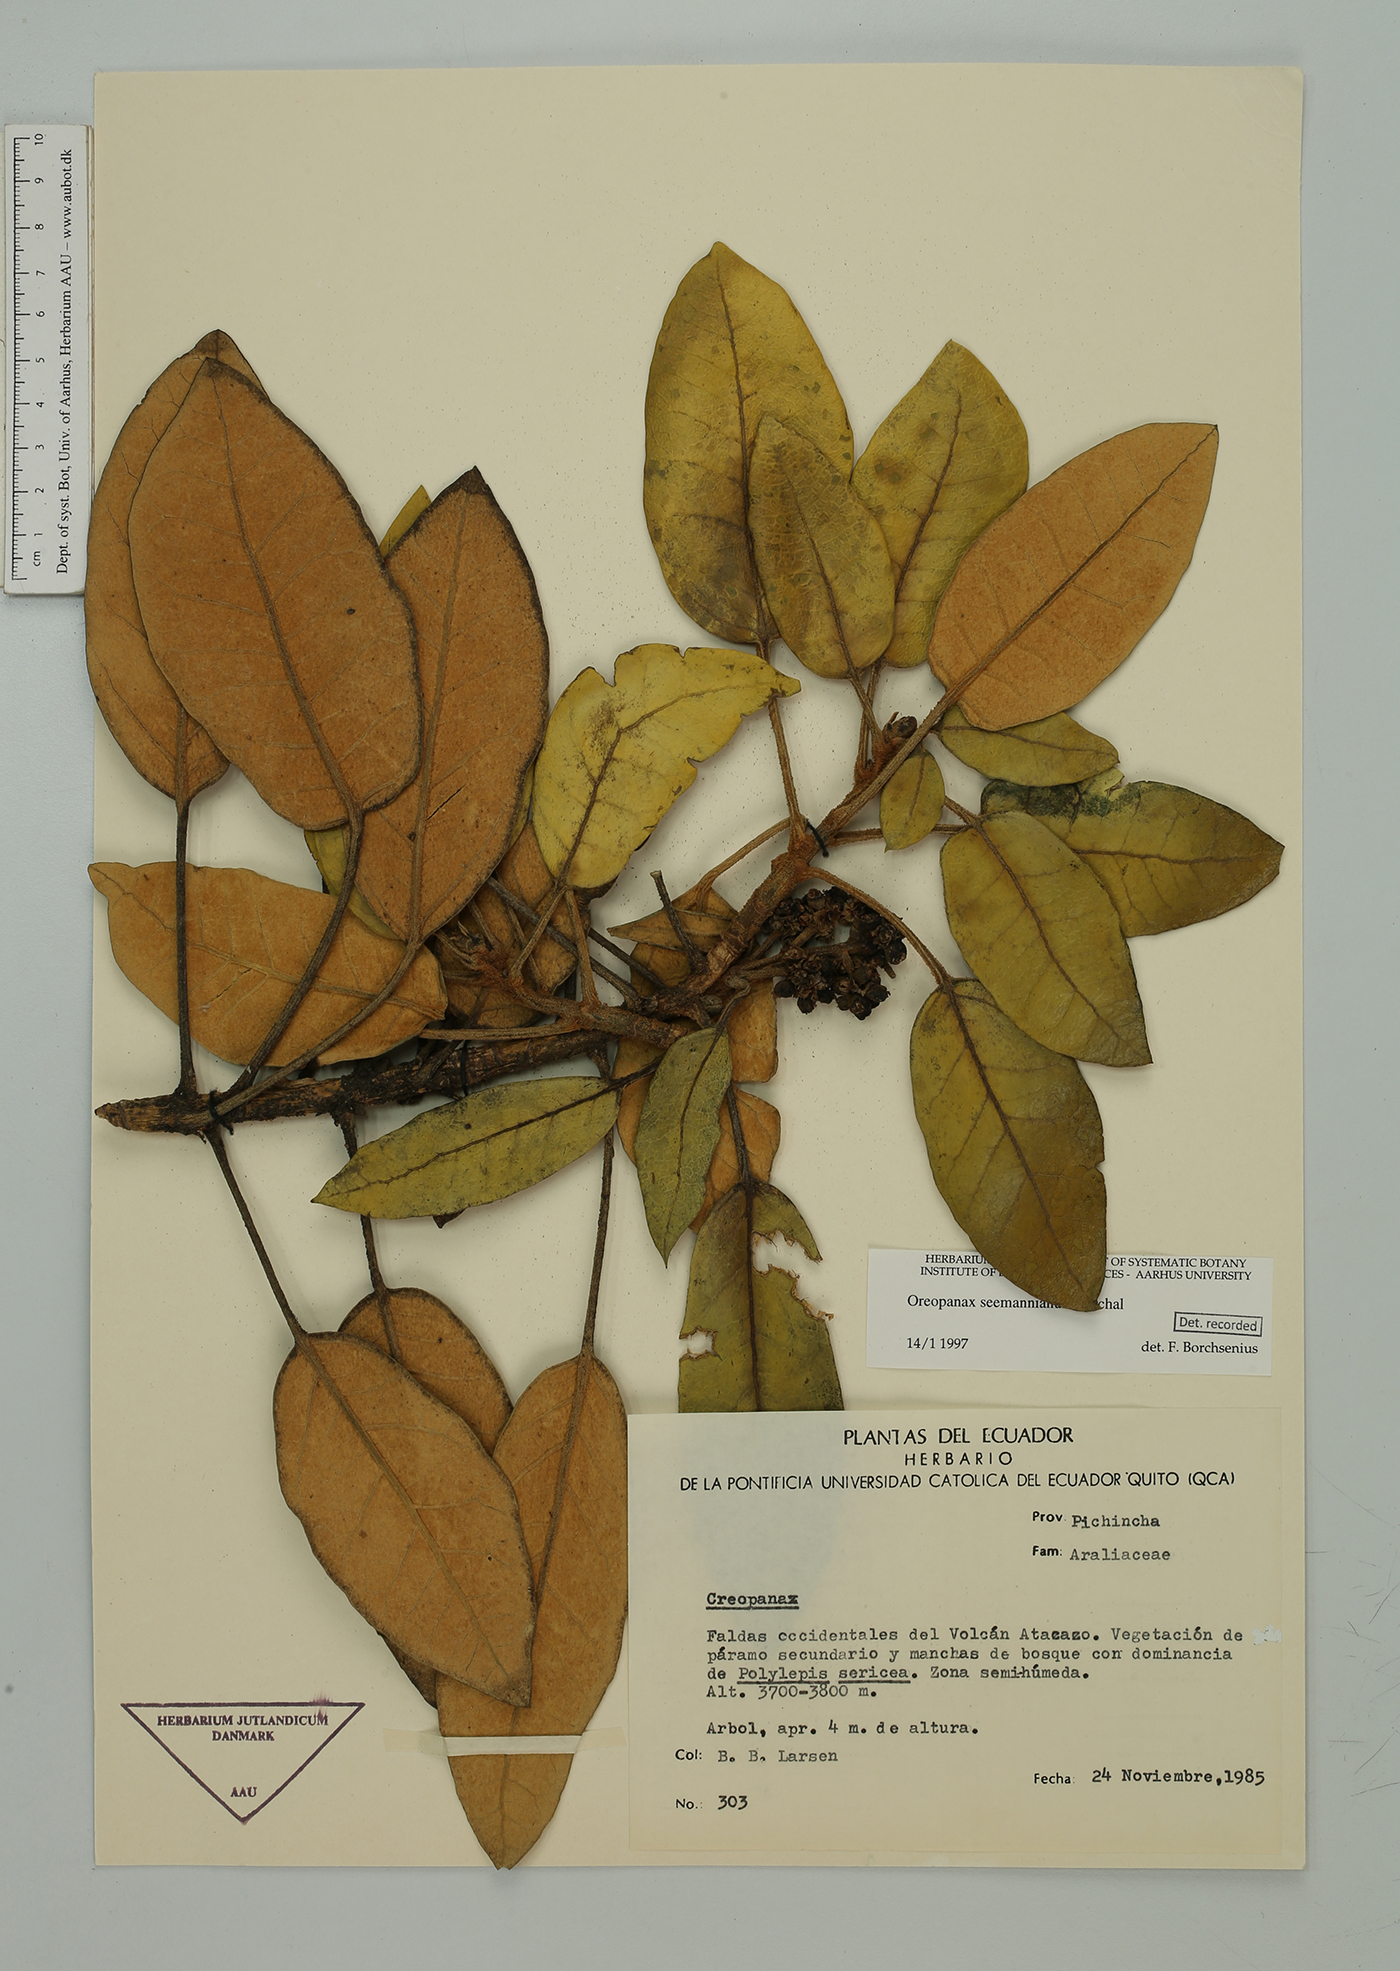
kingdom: Plantae
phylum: Tracheophyta
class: Magnoliopsida
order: Apiales
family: Araliaceae
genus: Oreopanax
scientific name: Oreopanax seemannianus
